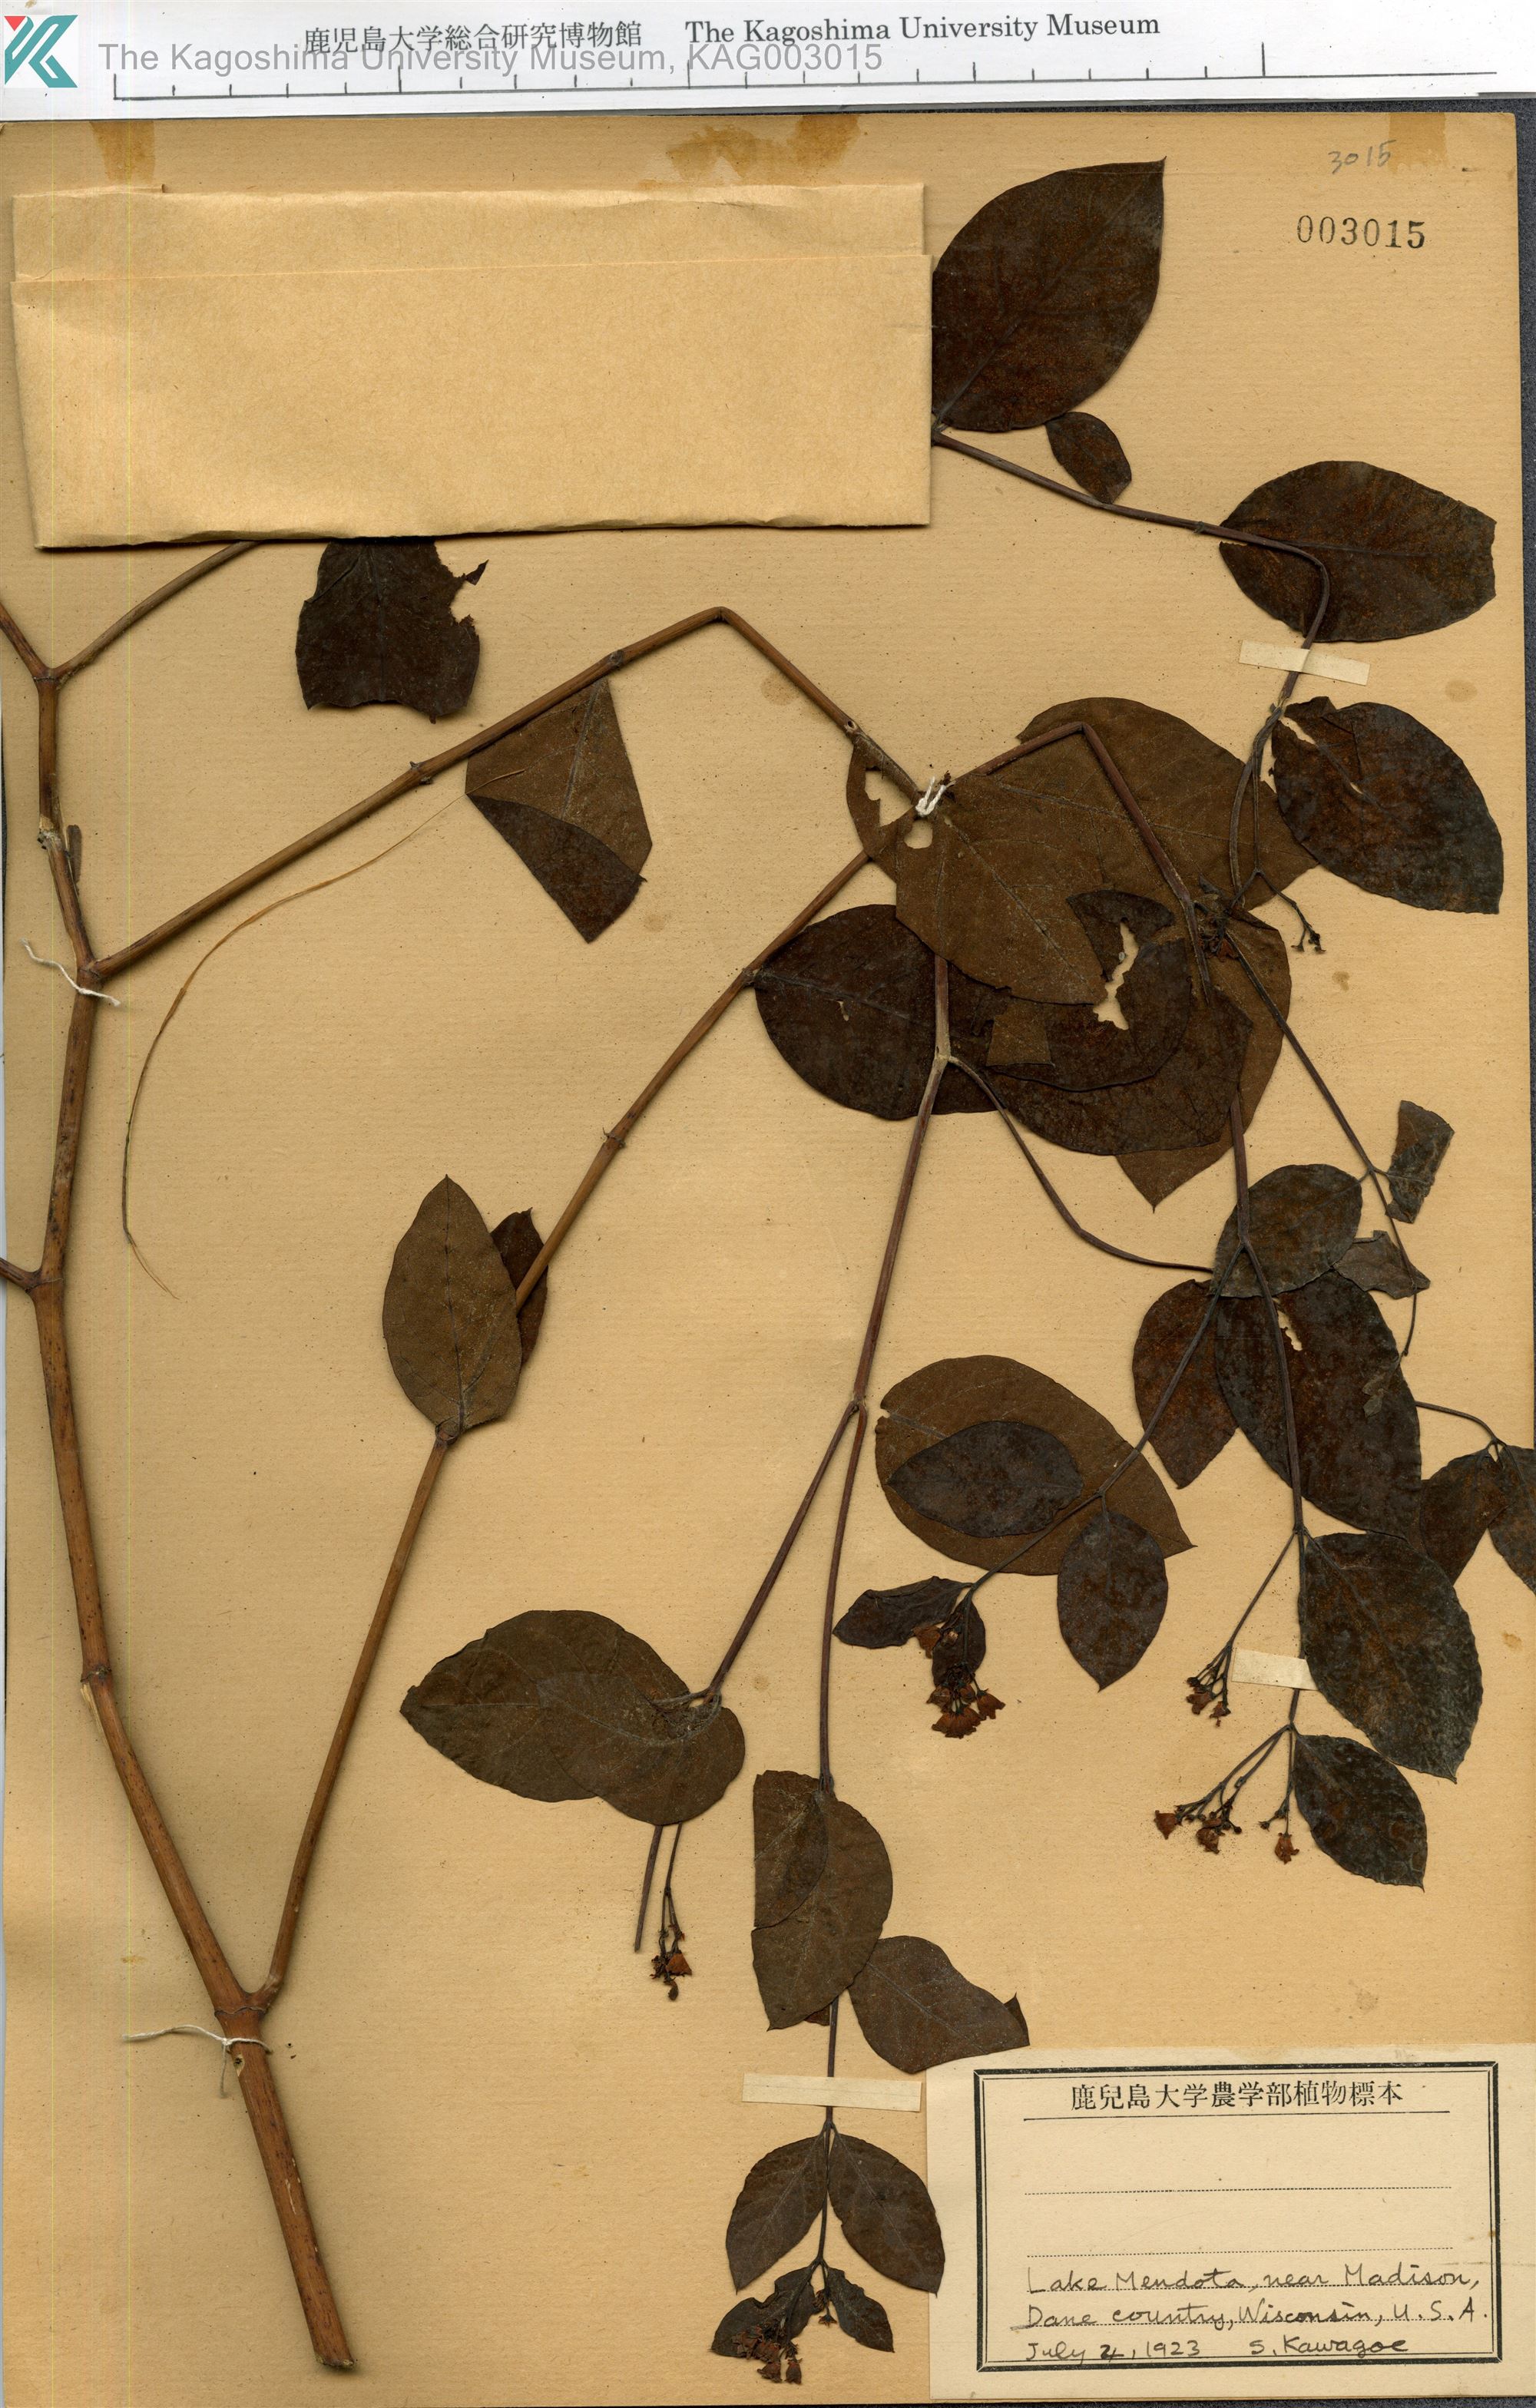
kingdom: Plantae
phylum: Tracheophyta
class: Magnoliopsida
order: Gentianales
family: Apocynaceae
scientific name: Apocynaceae
